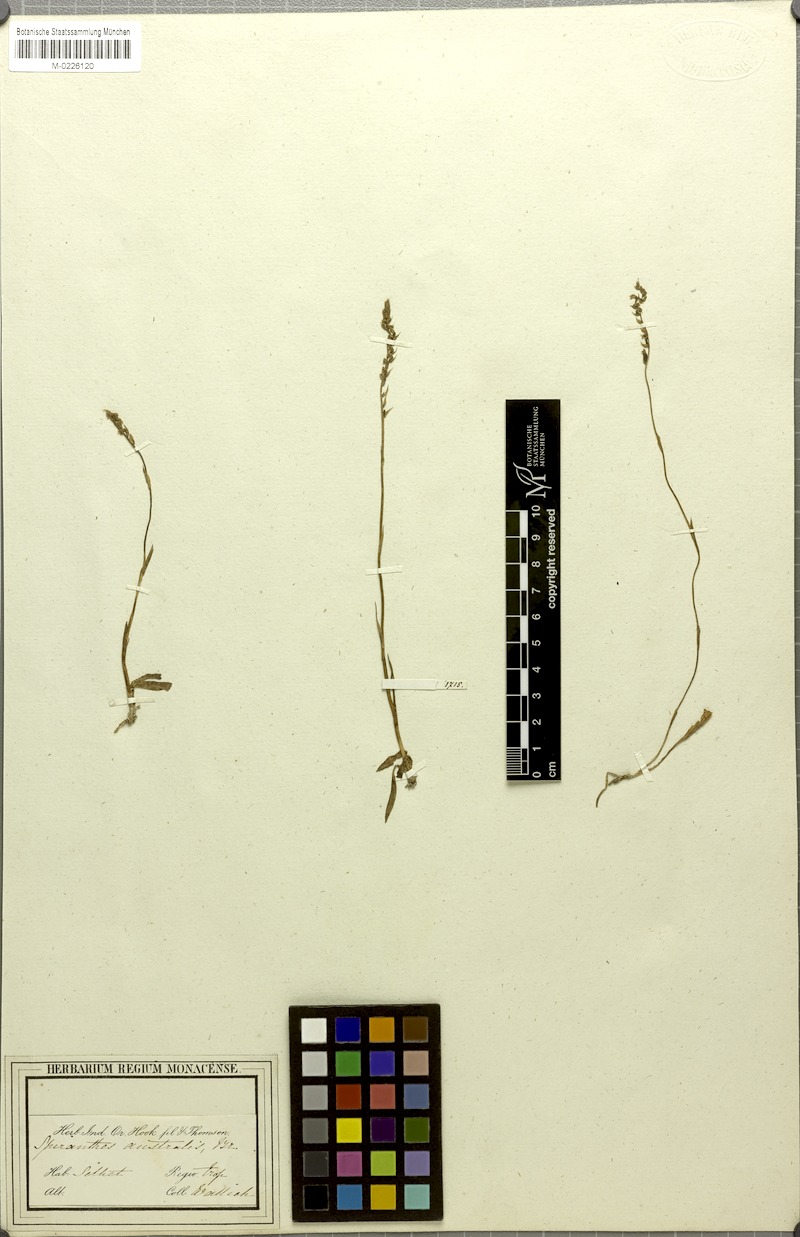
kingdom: Plantae
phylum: Tracheophyta
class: Liliopsida
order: Asparagales
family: Orchidaceae
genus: Spiranthes
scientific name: Spiranthes sinensis
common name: Chinese spiranthes
